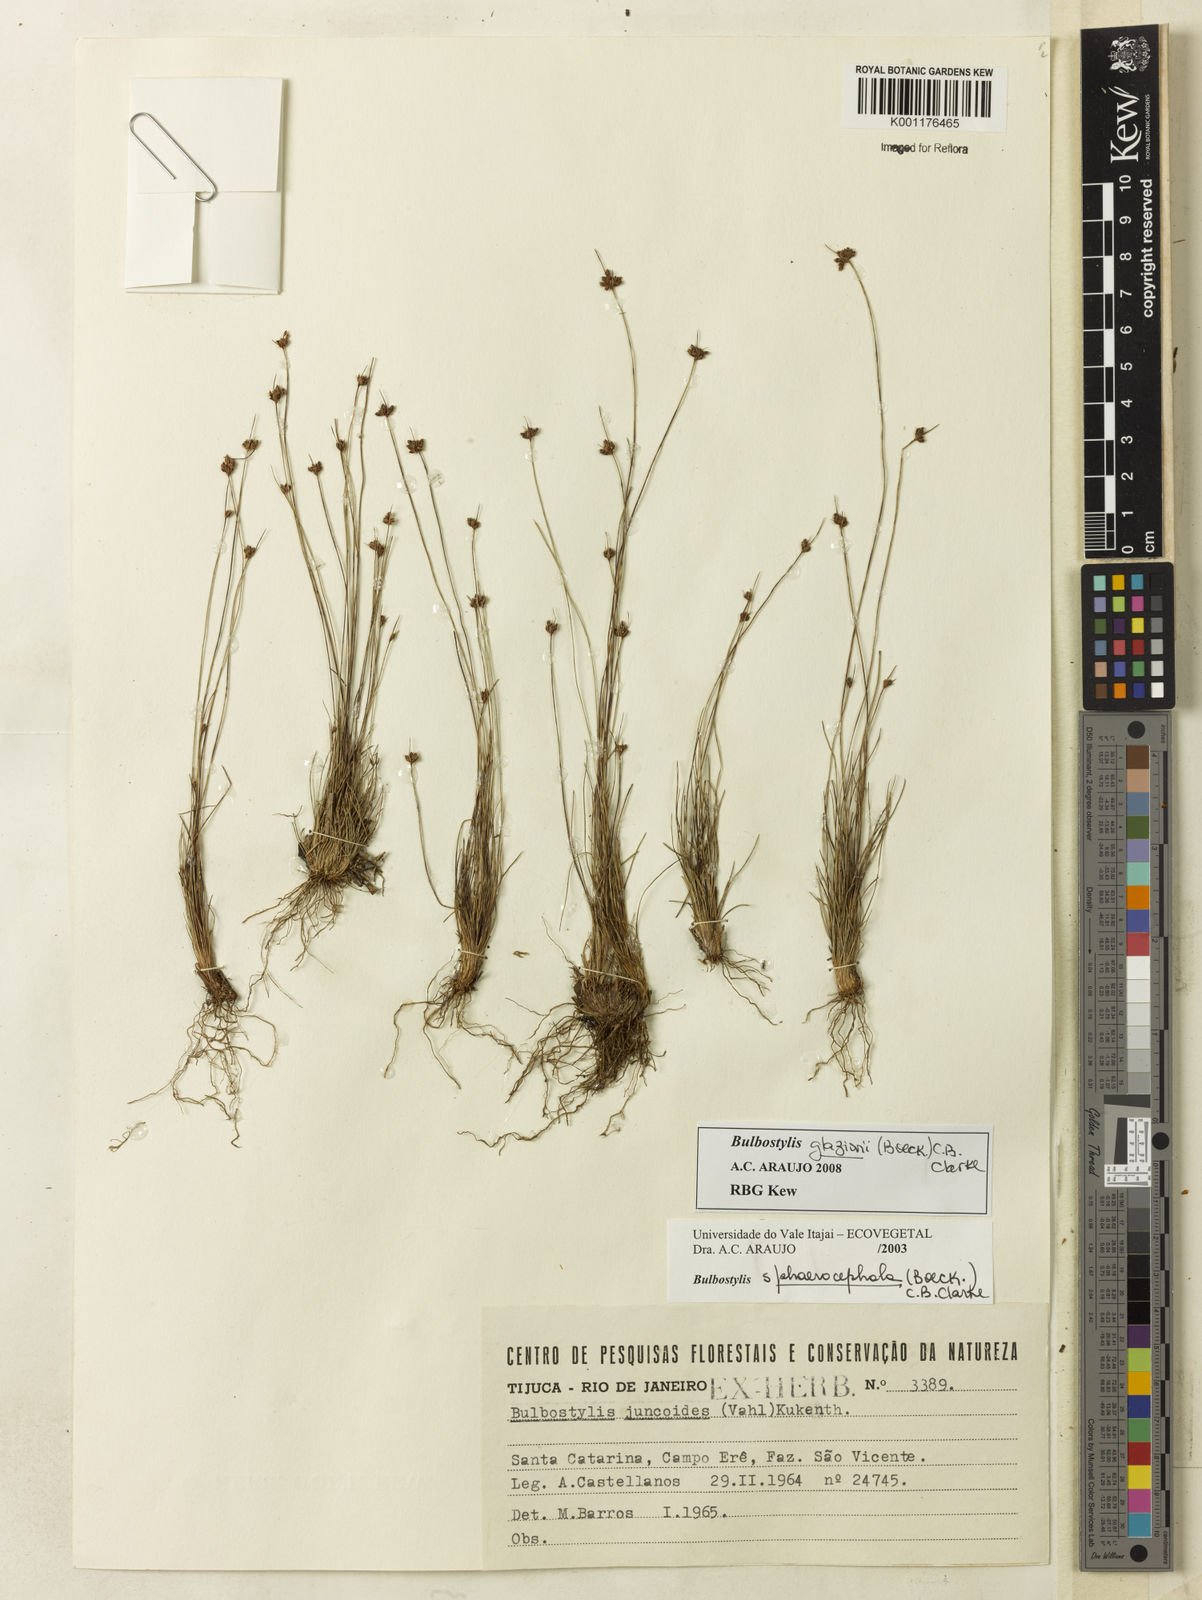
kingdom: Plantae
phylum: Tracheophyta
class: Liliopsida
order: Poales
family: Cyperaceae
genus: Bulbostylis
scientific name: Bulbostylis juncoides
